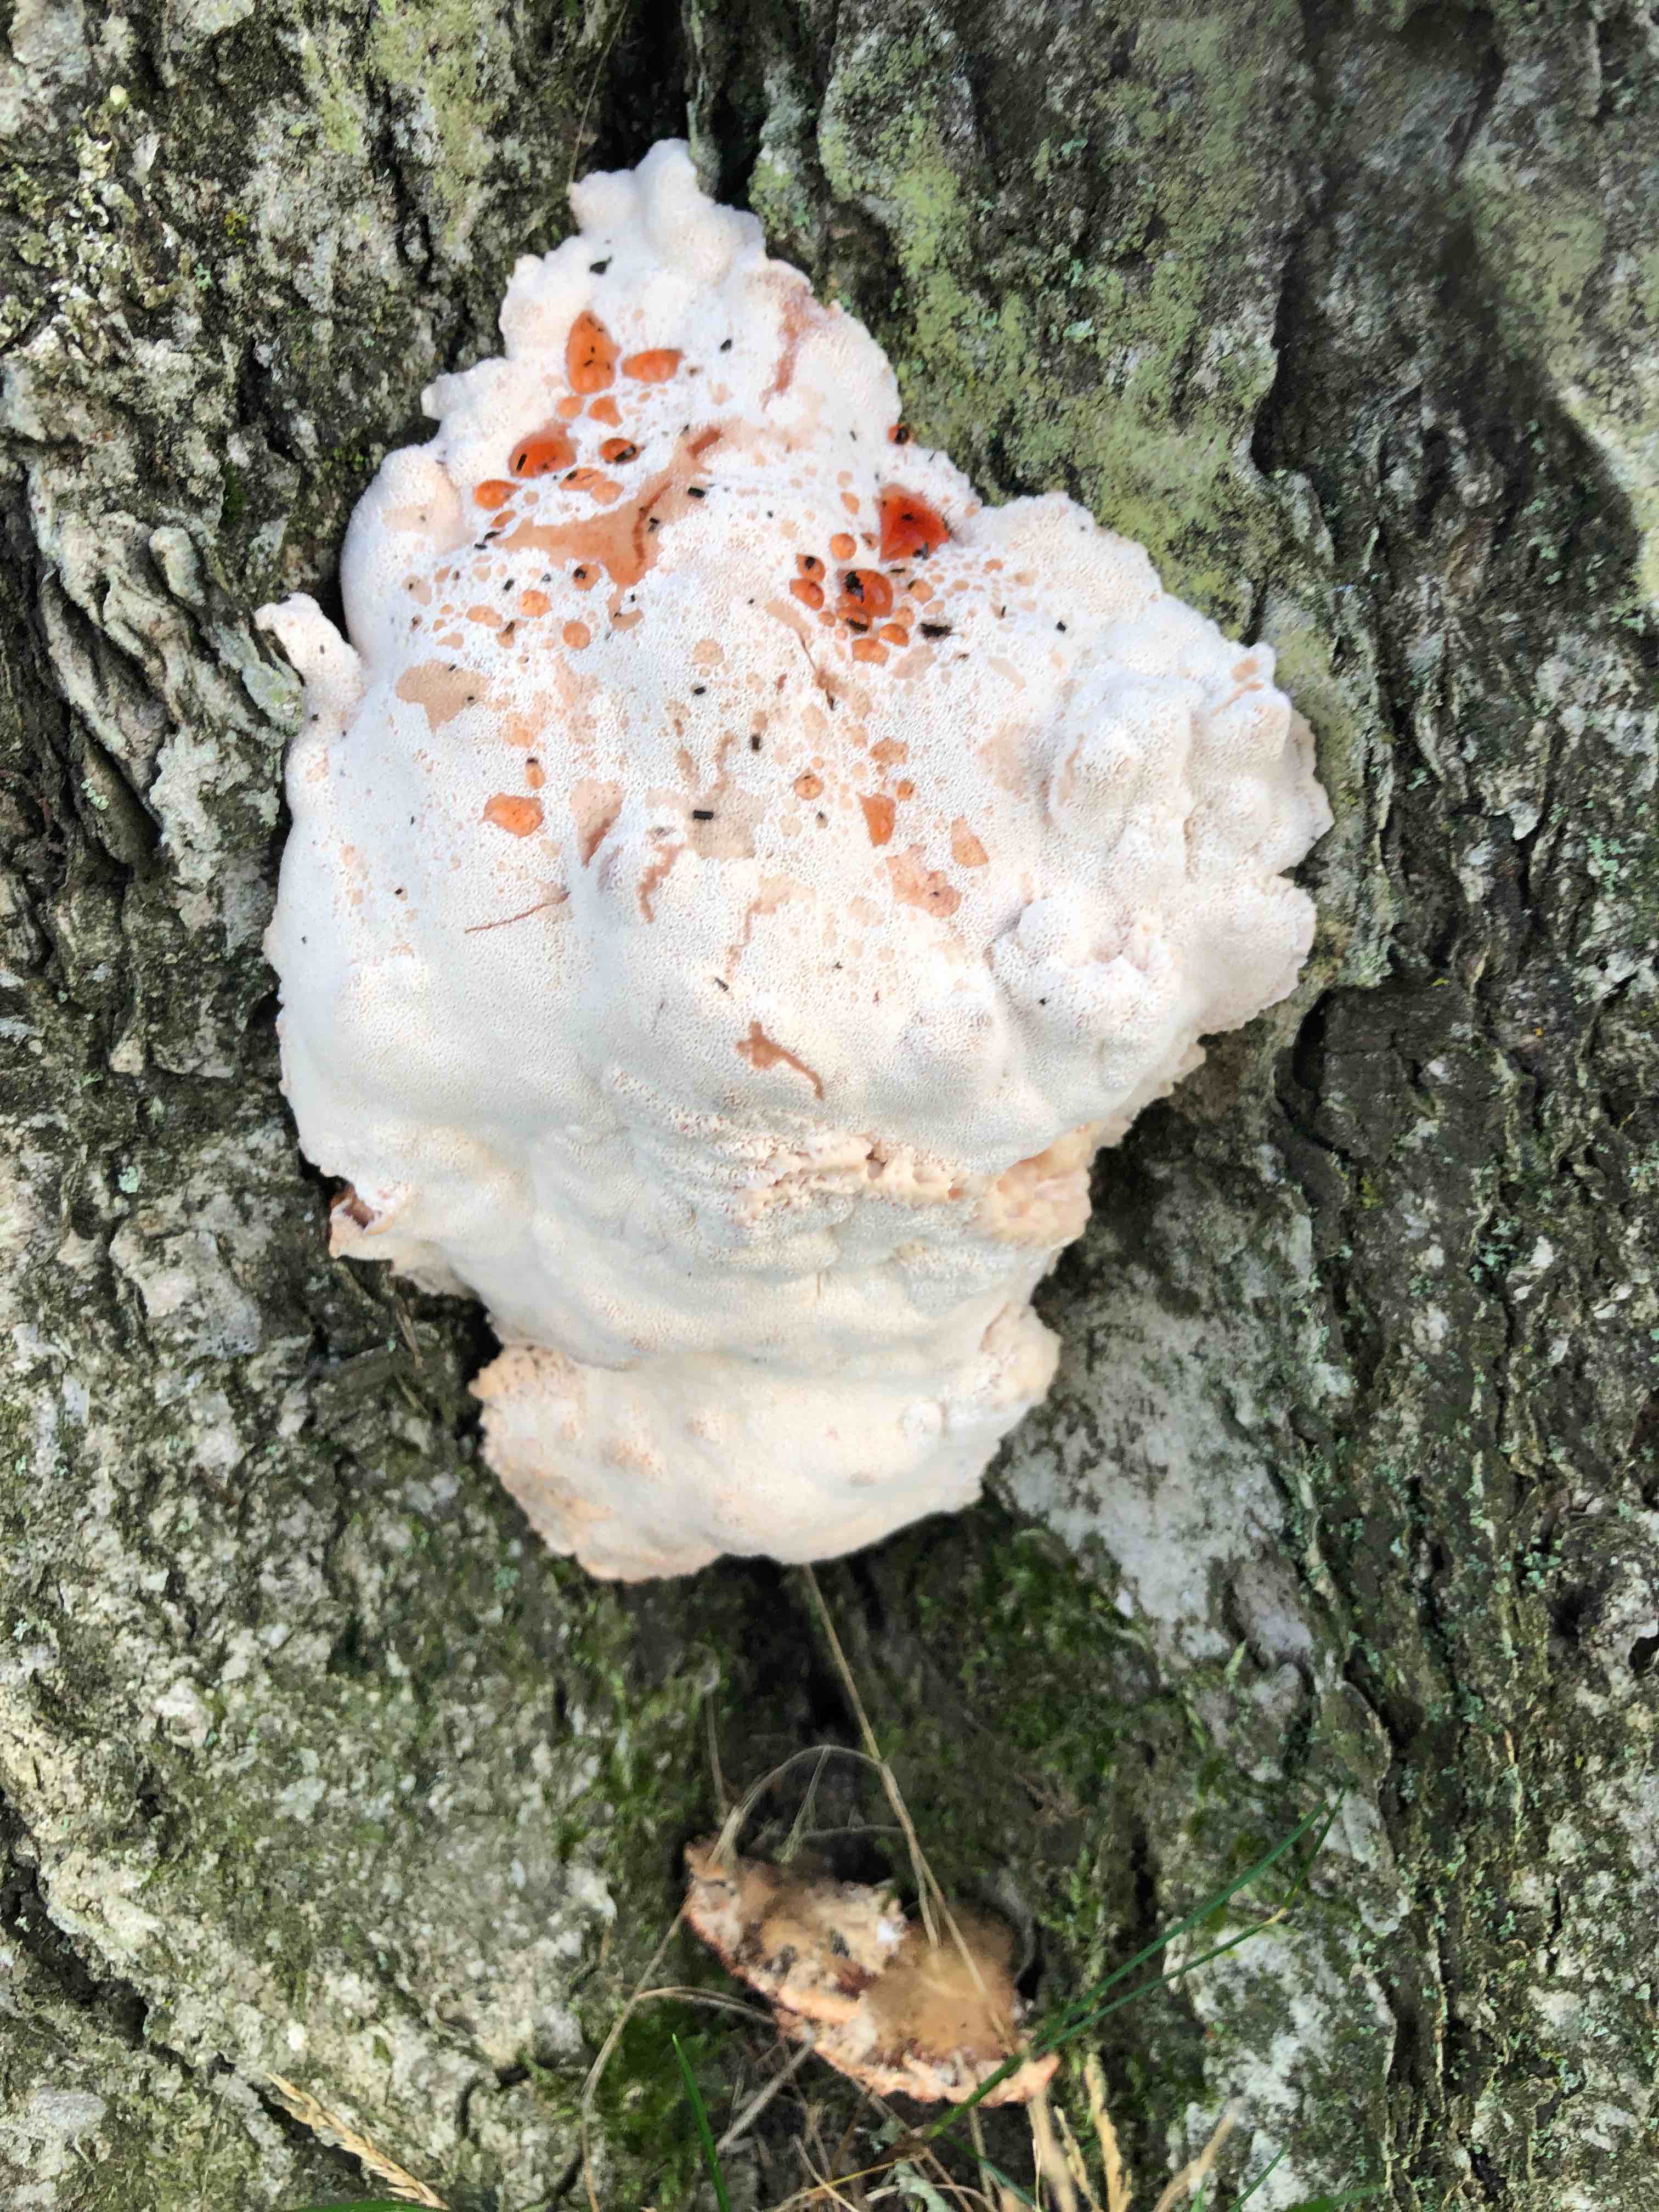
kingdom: Fungi
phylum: Basidiomycota
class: Agaricomycetes
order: Polyporales
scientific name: Polyporales
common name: poresvampordenen
